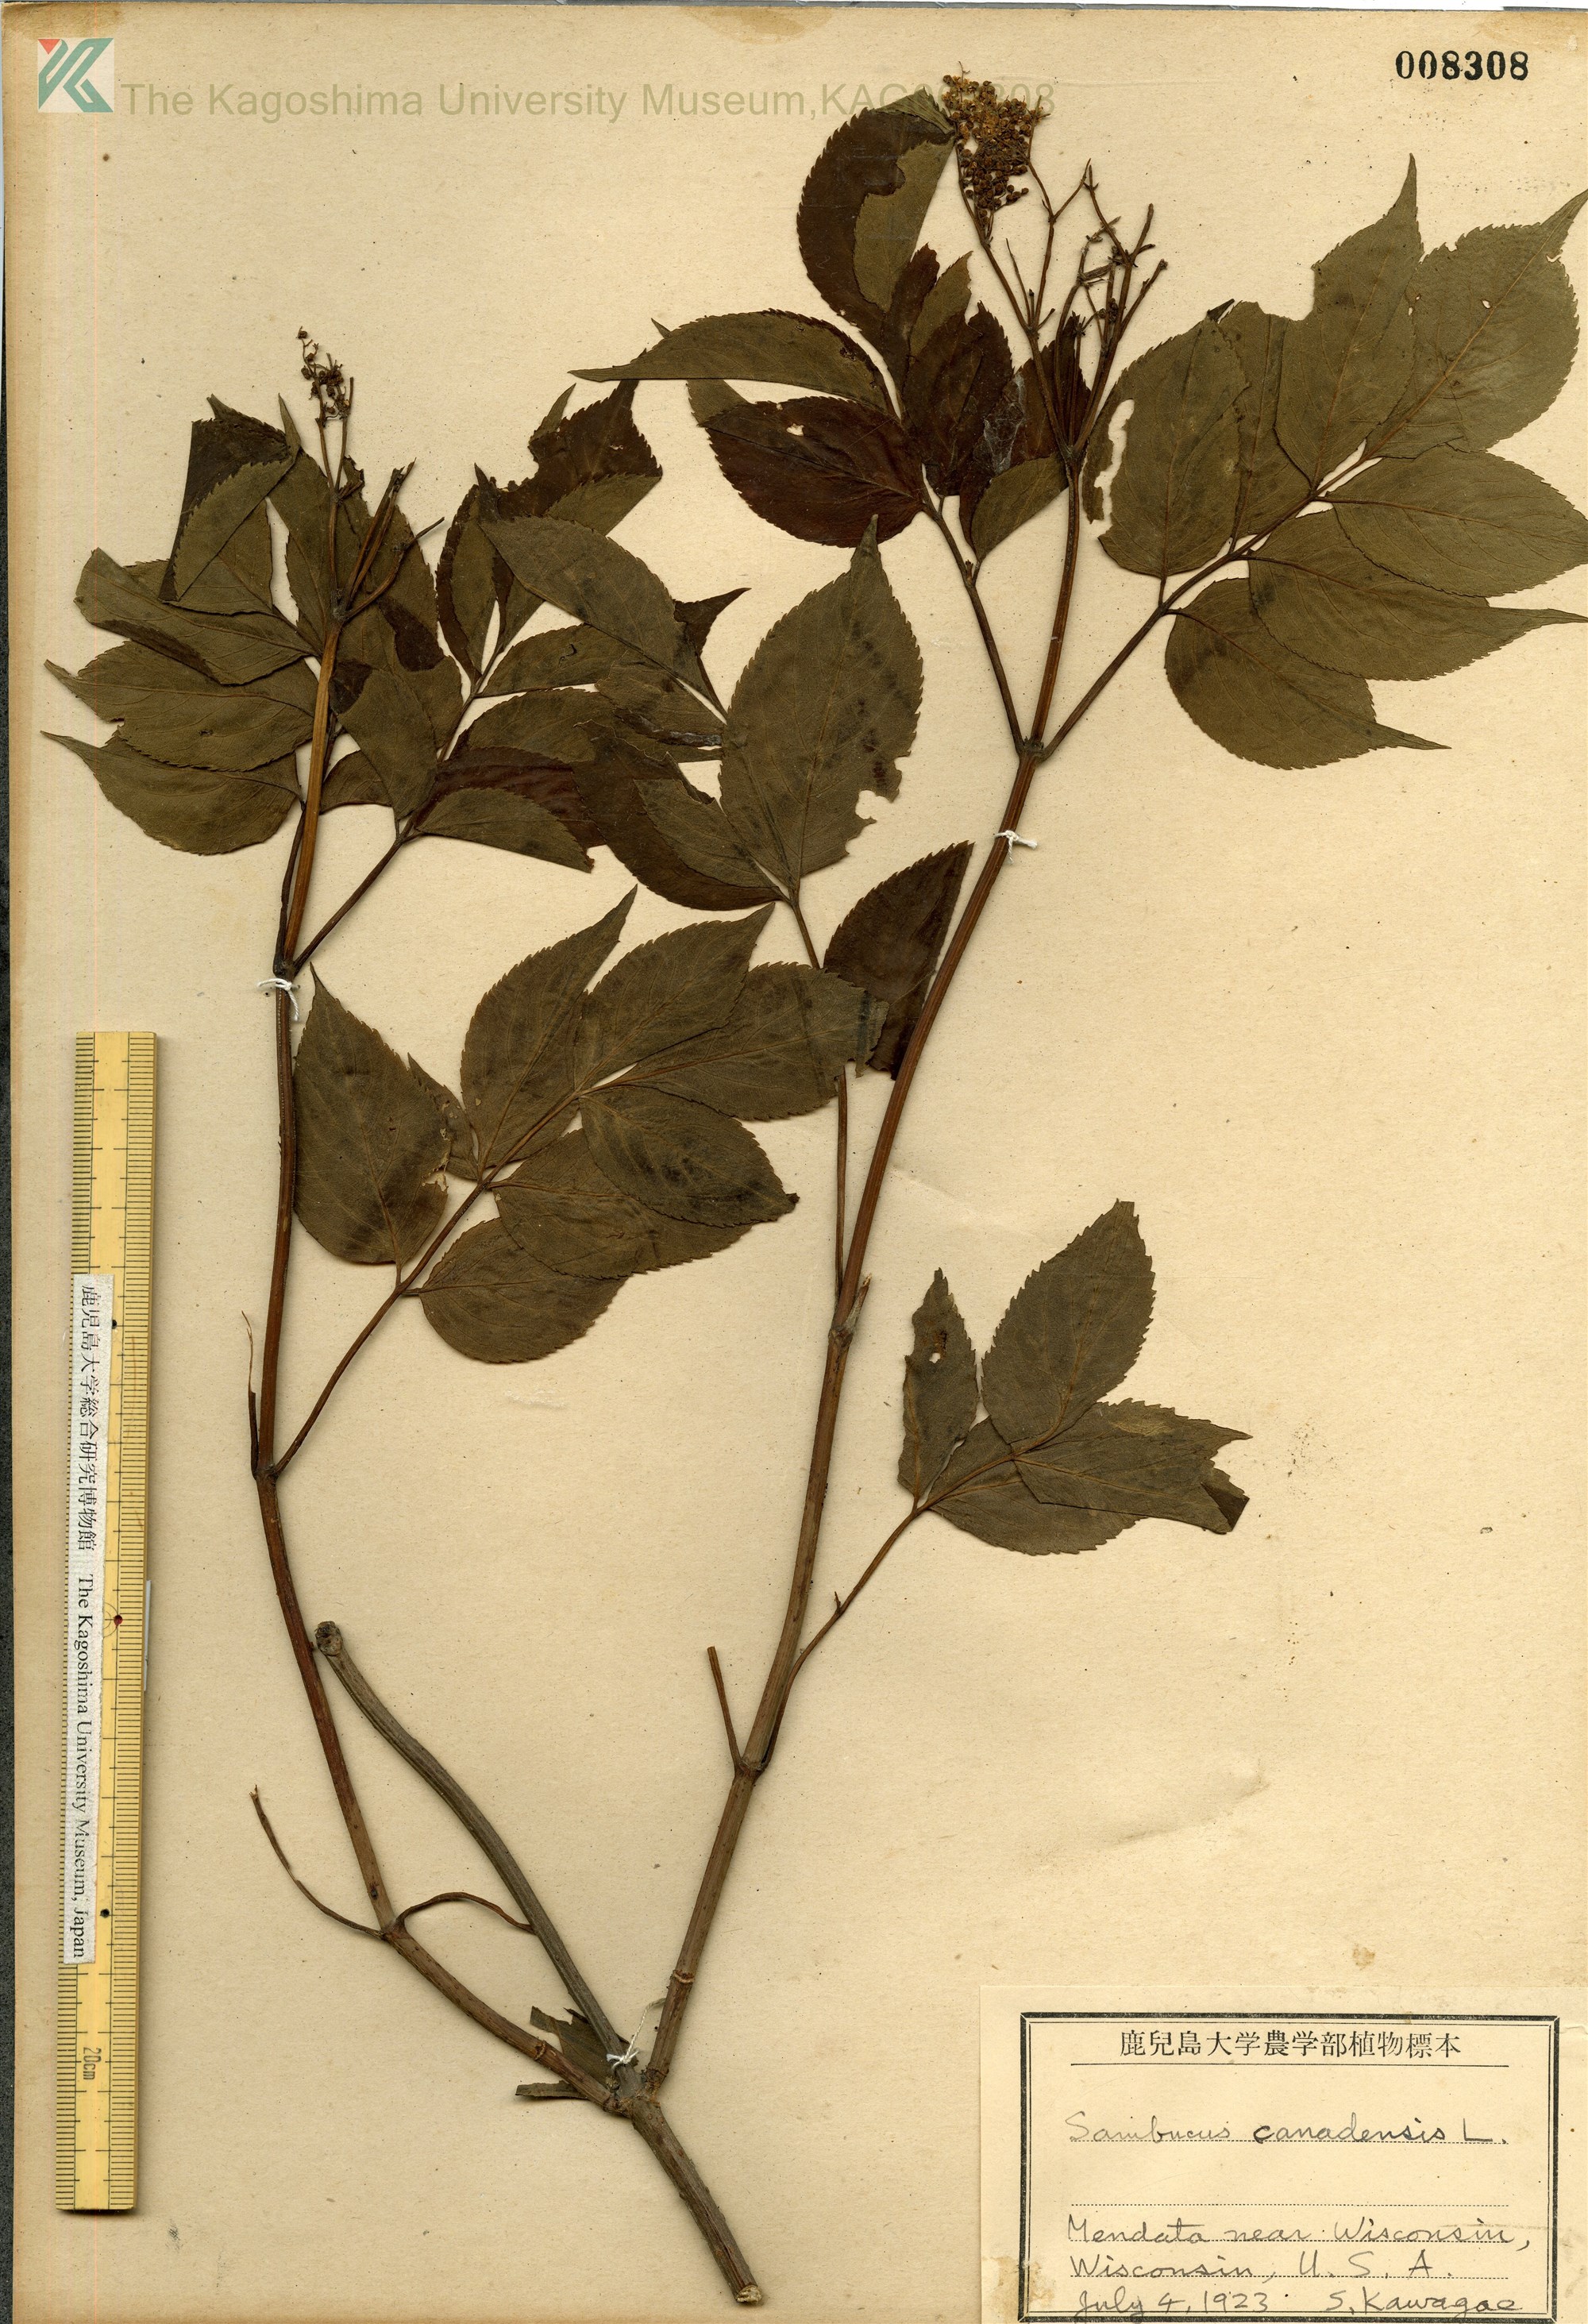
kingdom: Plantae
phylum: Tracheophyta
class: Magnoliopsida
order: Dipsacales
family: Viburnaceae
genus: Sambucus
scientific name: Sambucus canadensis
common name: American elder
